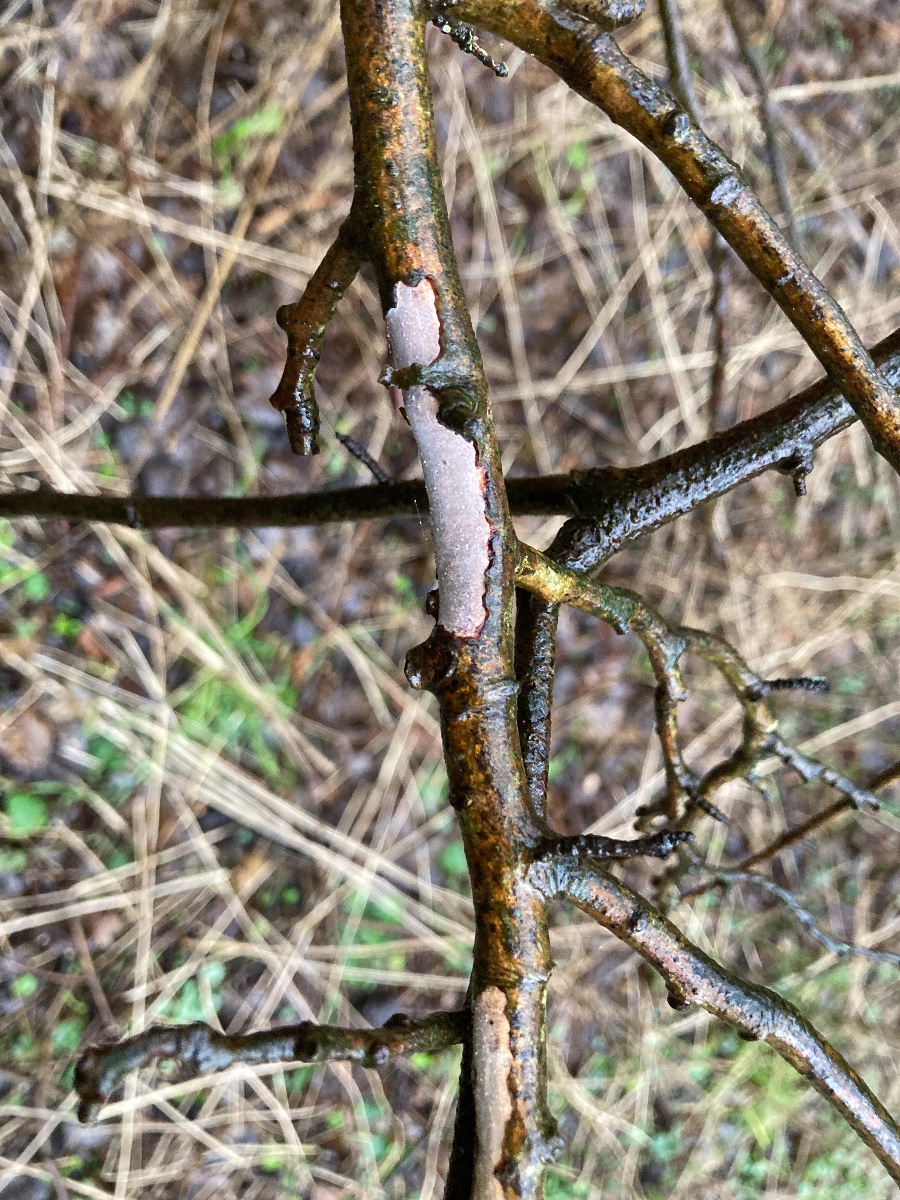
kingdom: Fungi
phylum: Basidiomycota
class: Agaricomycetes
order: Corticiales
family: Vuilleminiaceae
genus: Vuilleminia
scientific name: Vuilleminia cystidiata
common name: tjørne-barksprænger
